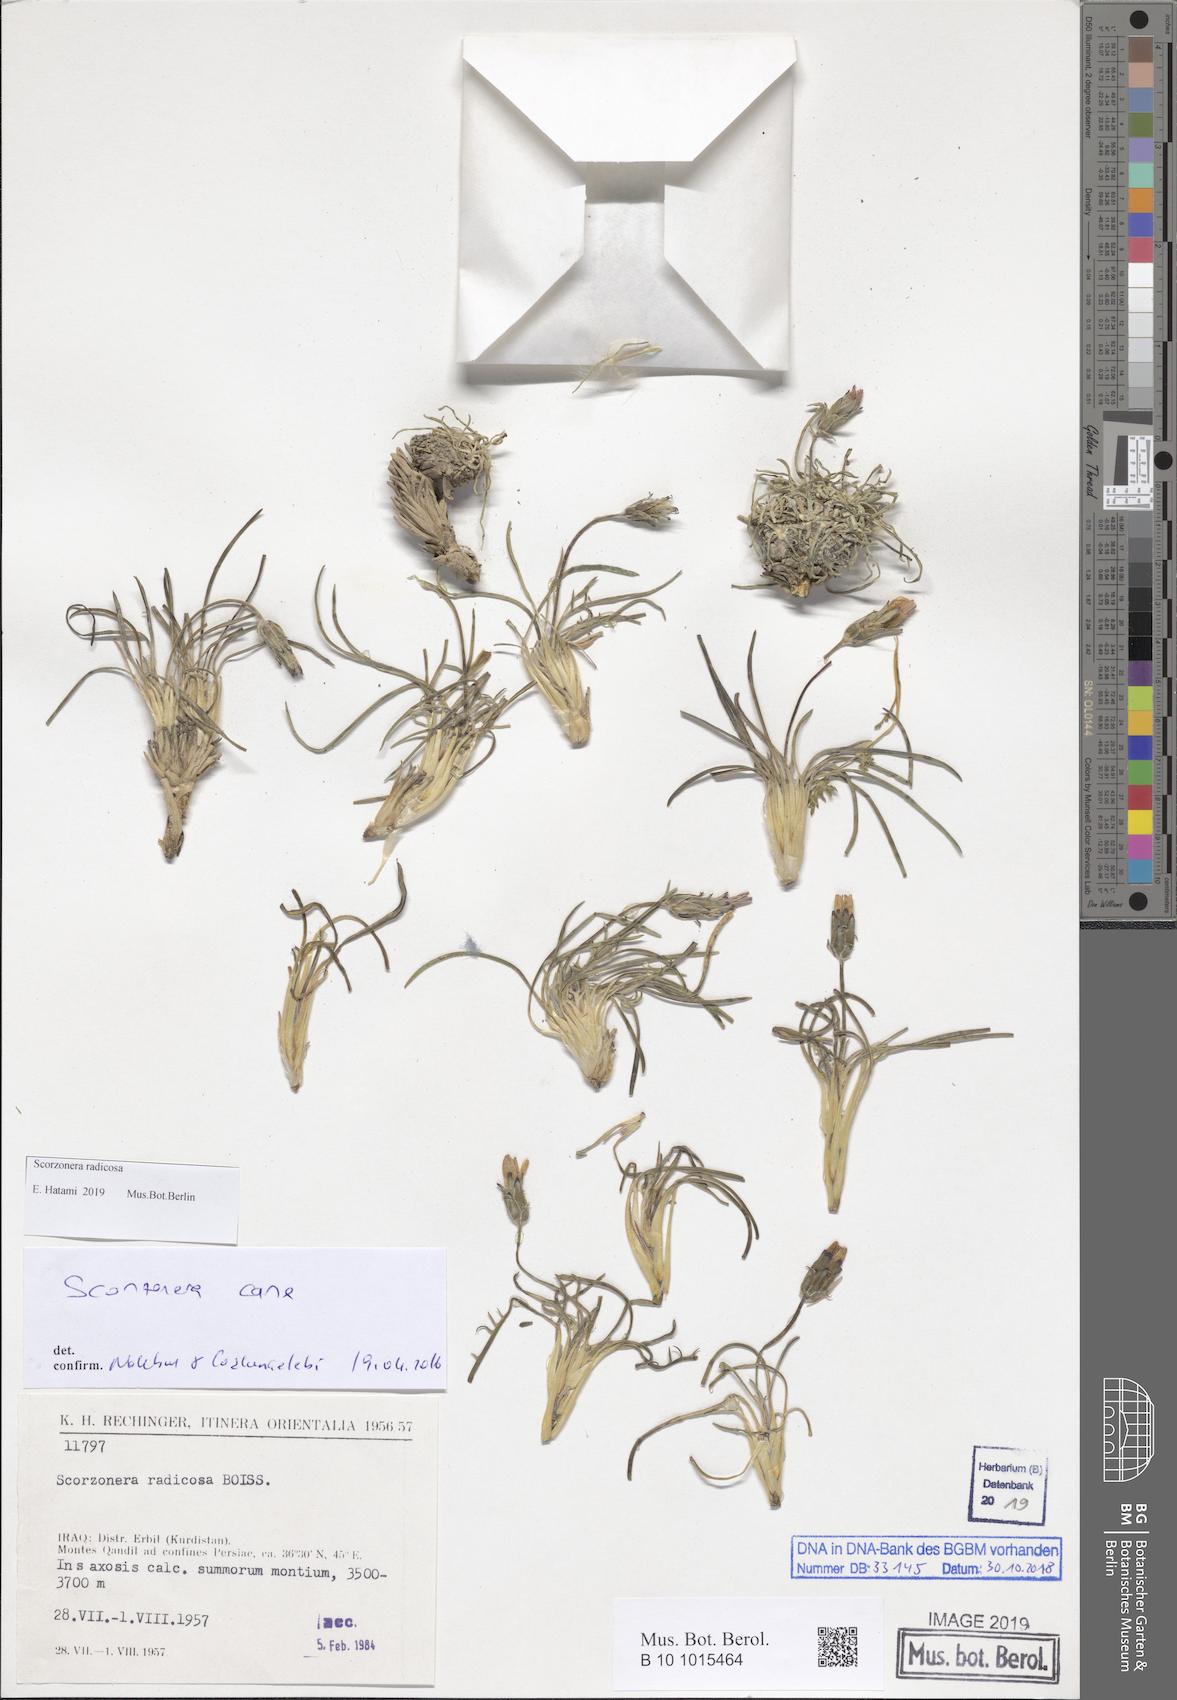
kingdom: Plantae
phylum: Tracheophyta
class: Magnoliopsida
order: Asterales
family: Asteraceae
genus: Scorzonera
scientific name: Scorzonera radicosa
